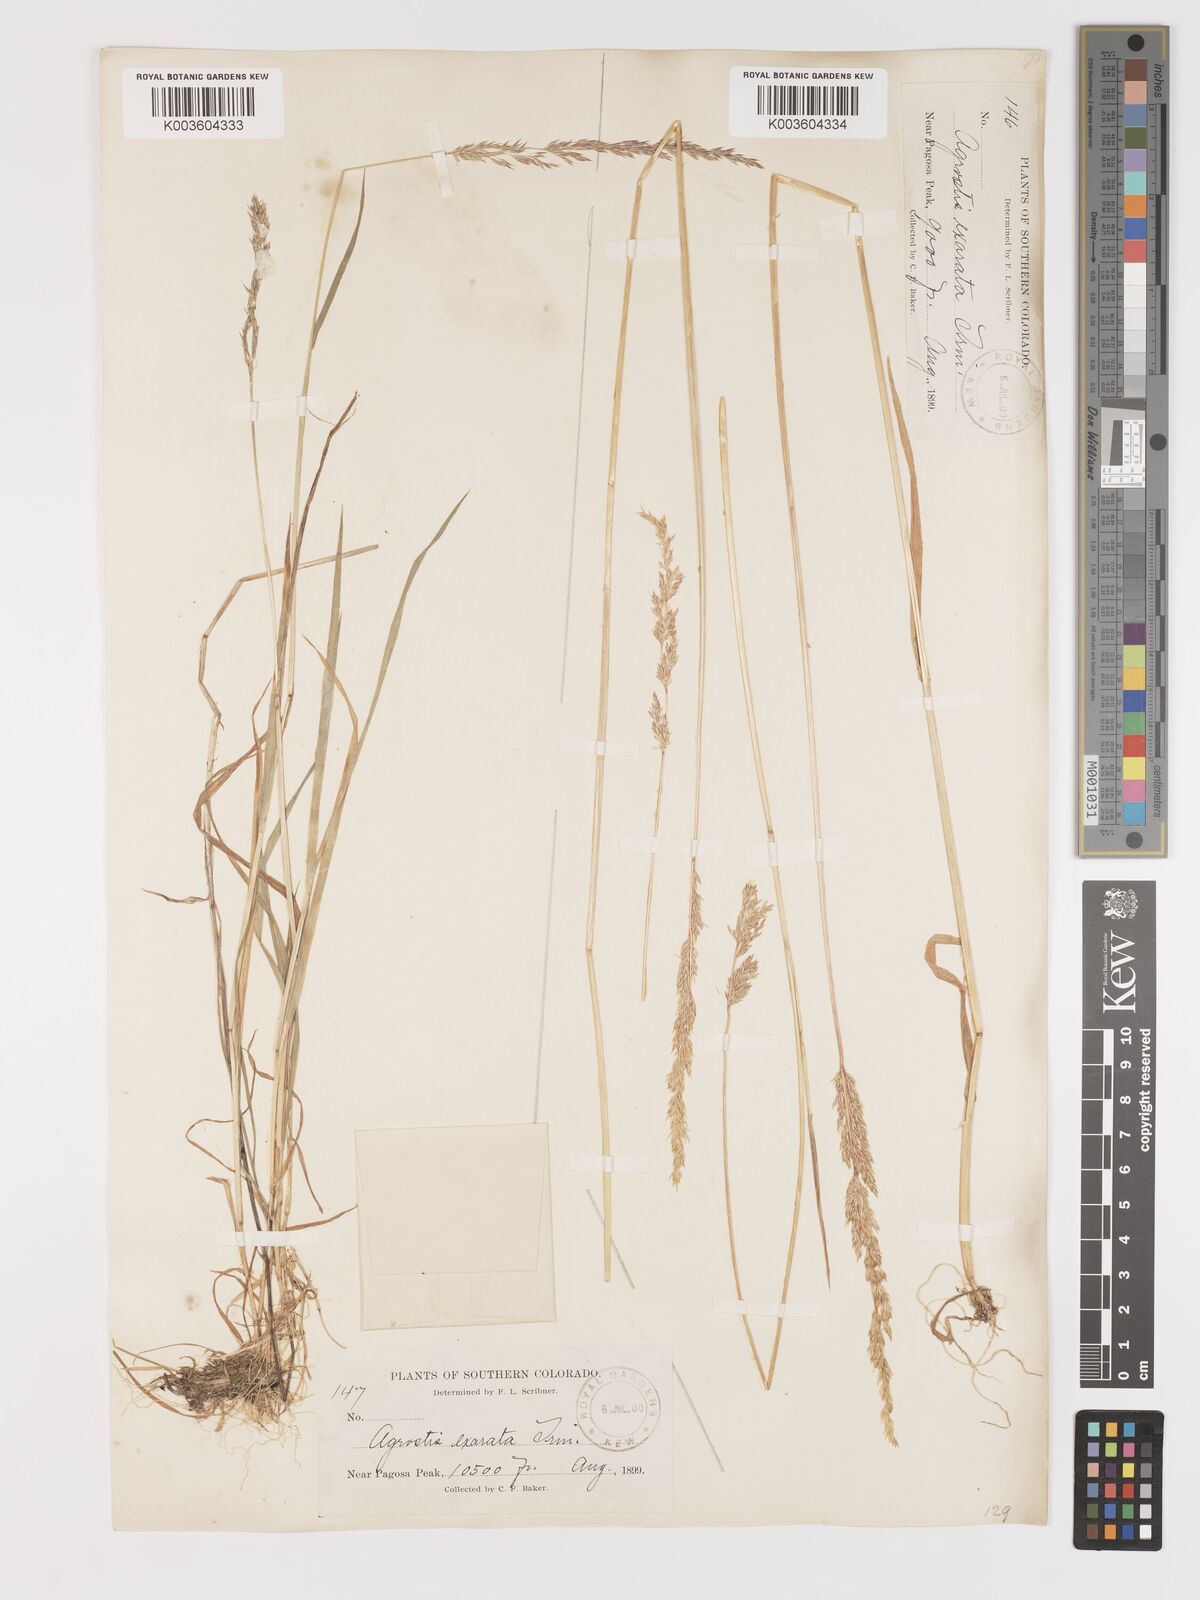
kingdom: Plantae
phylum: Tracheophyta
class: Liliopsida
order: Poales
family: Poaceae
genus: Agrostis
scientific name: Agrostis exarata
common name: Spike bent
